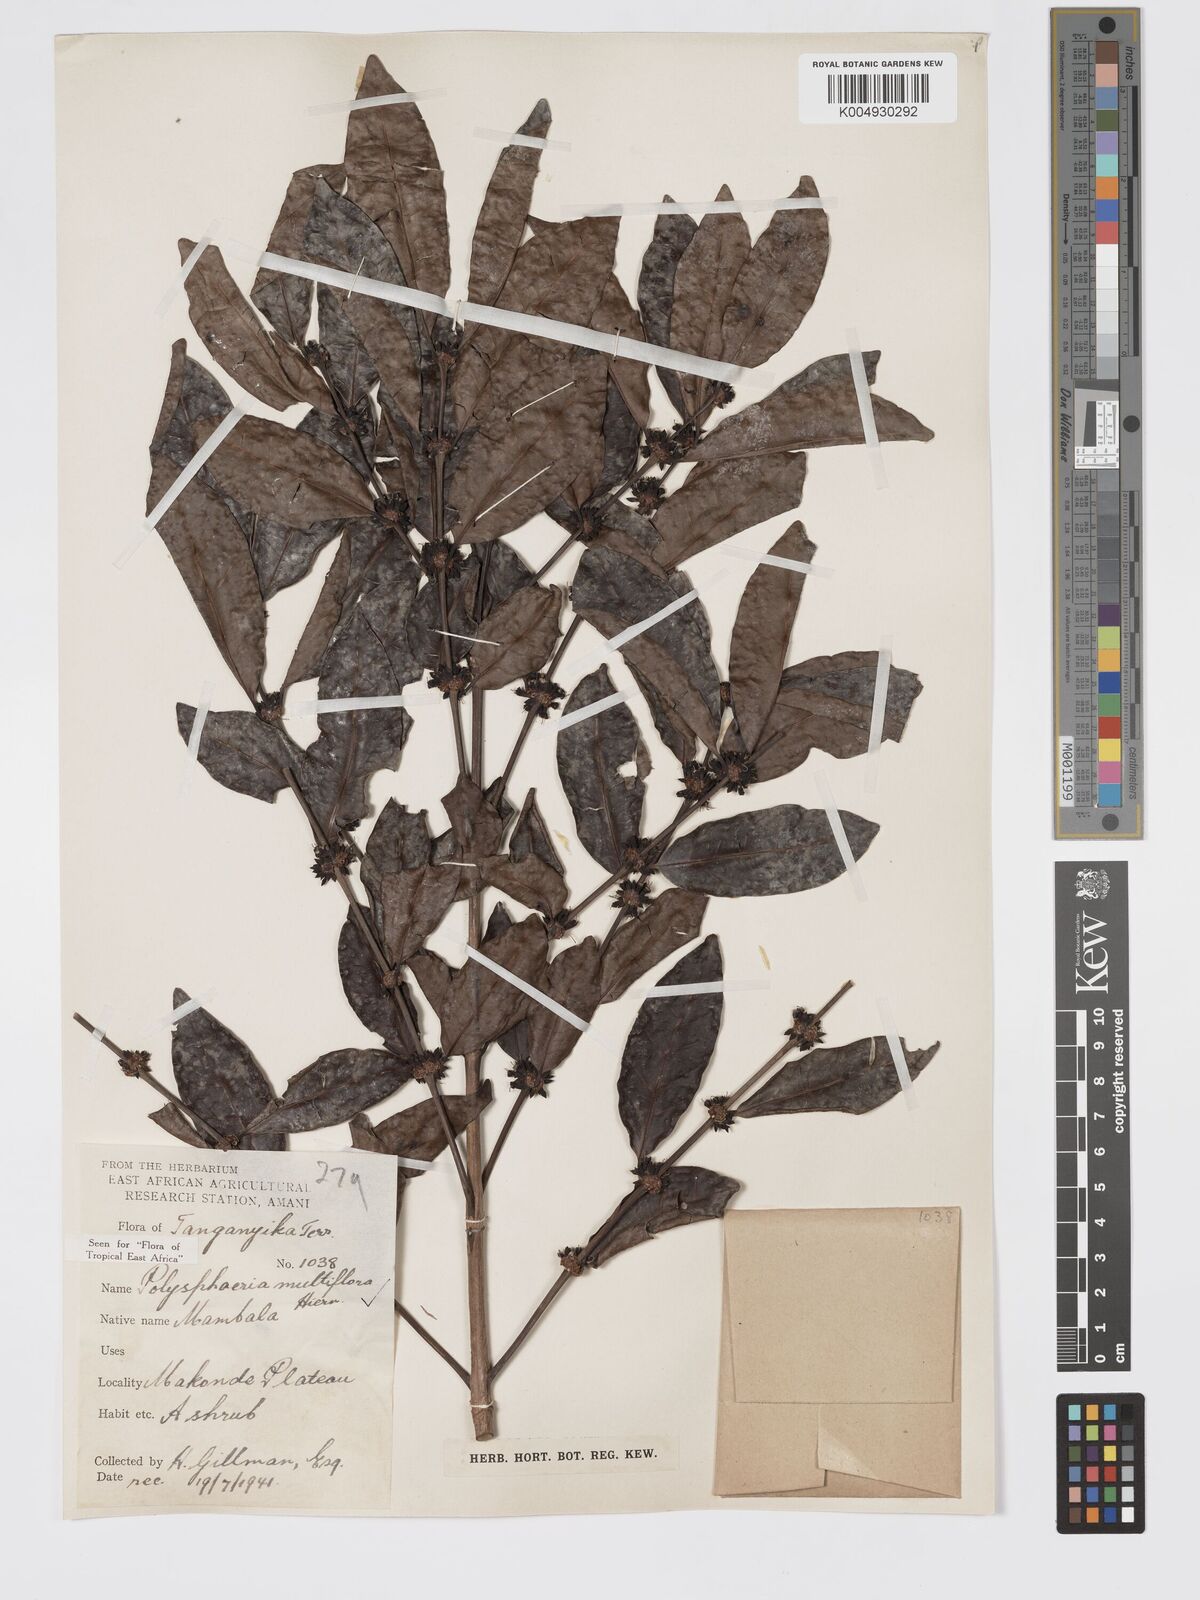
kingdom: Plantae
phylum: Tracheophyta
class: Magnoliopsida
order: Gentianales
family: Rubiaceae
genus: Polysphaeria
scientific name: Polysphaeria multiflora
